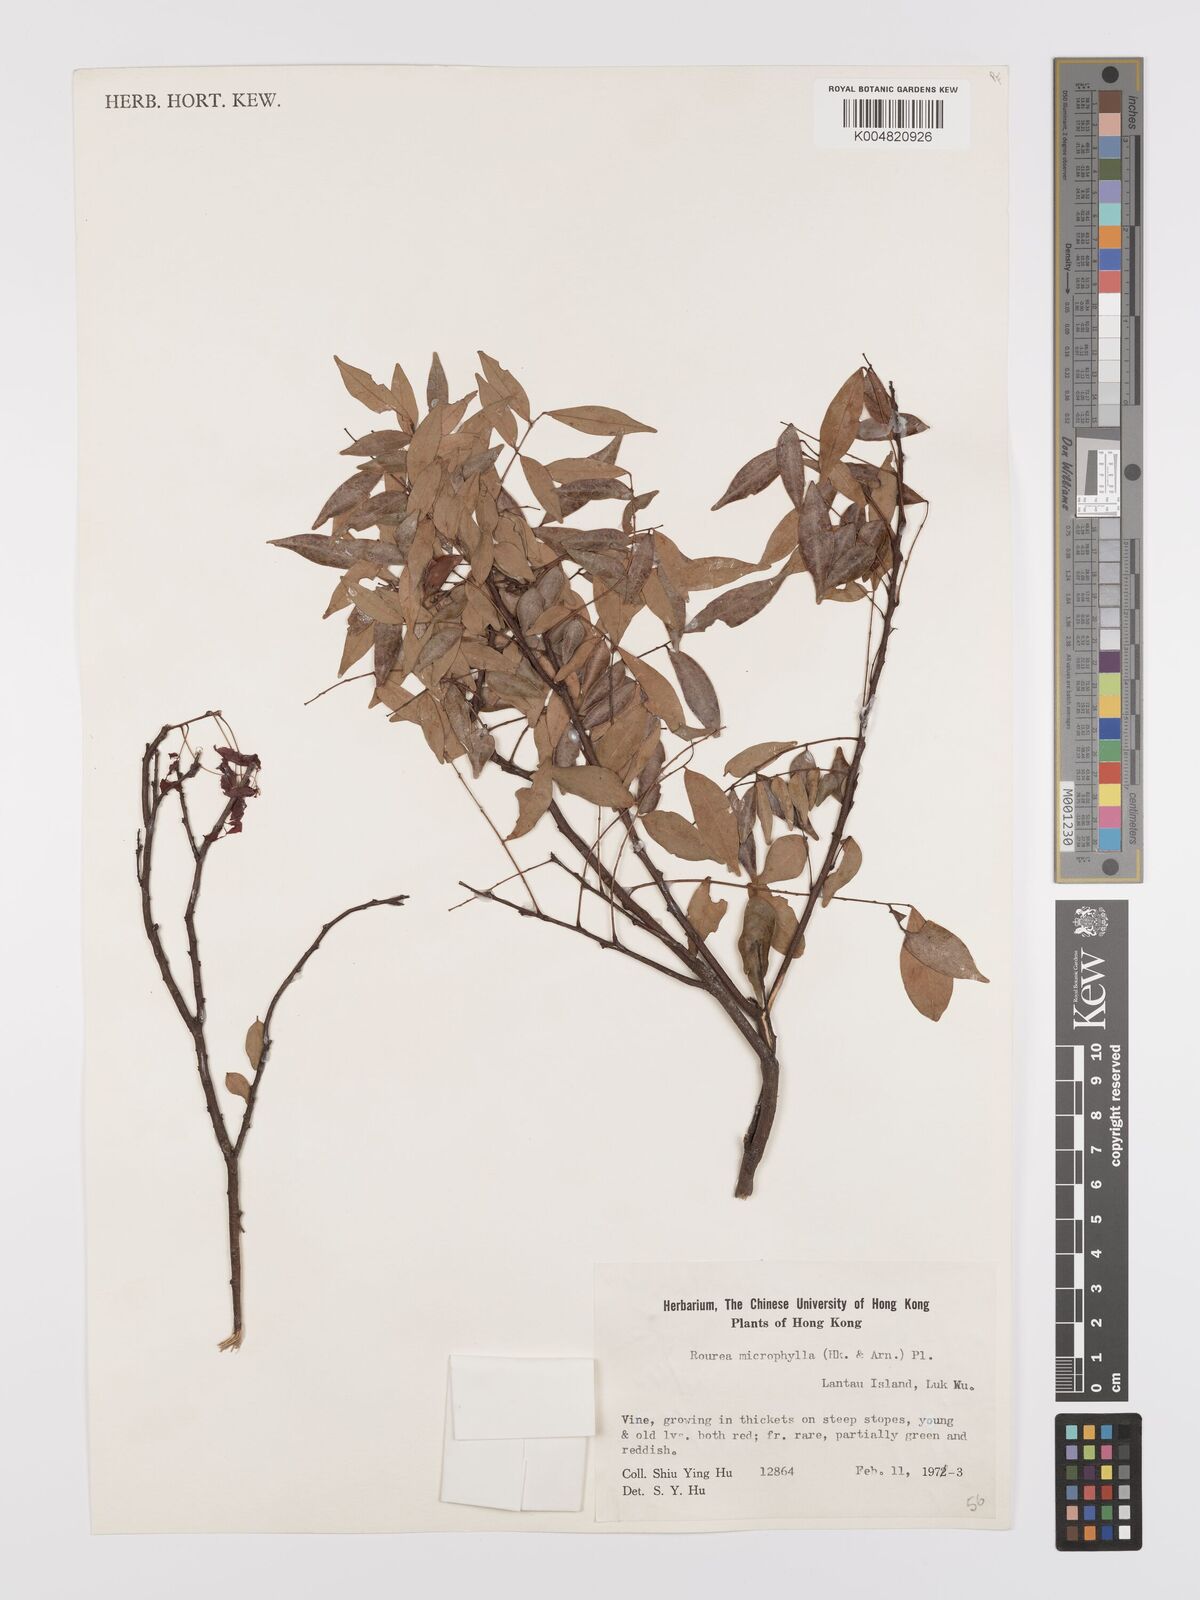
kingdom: Plantae
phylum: Tracheophyta
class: Magnoliopsida
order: Oxalidales
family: Connaraceae
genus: Rourea
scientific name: Rourea microphylla
